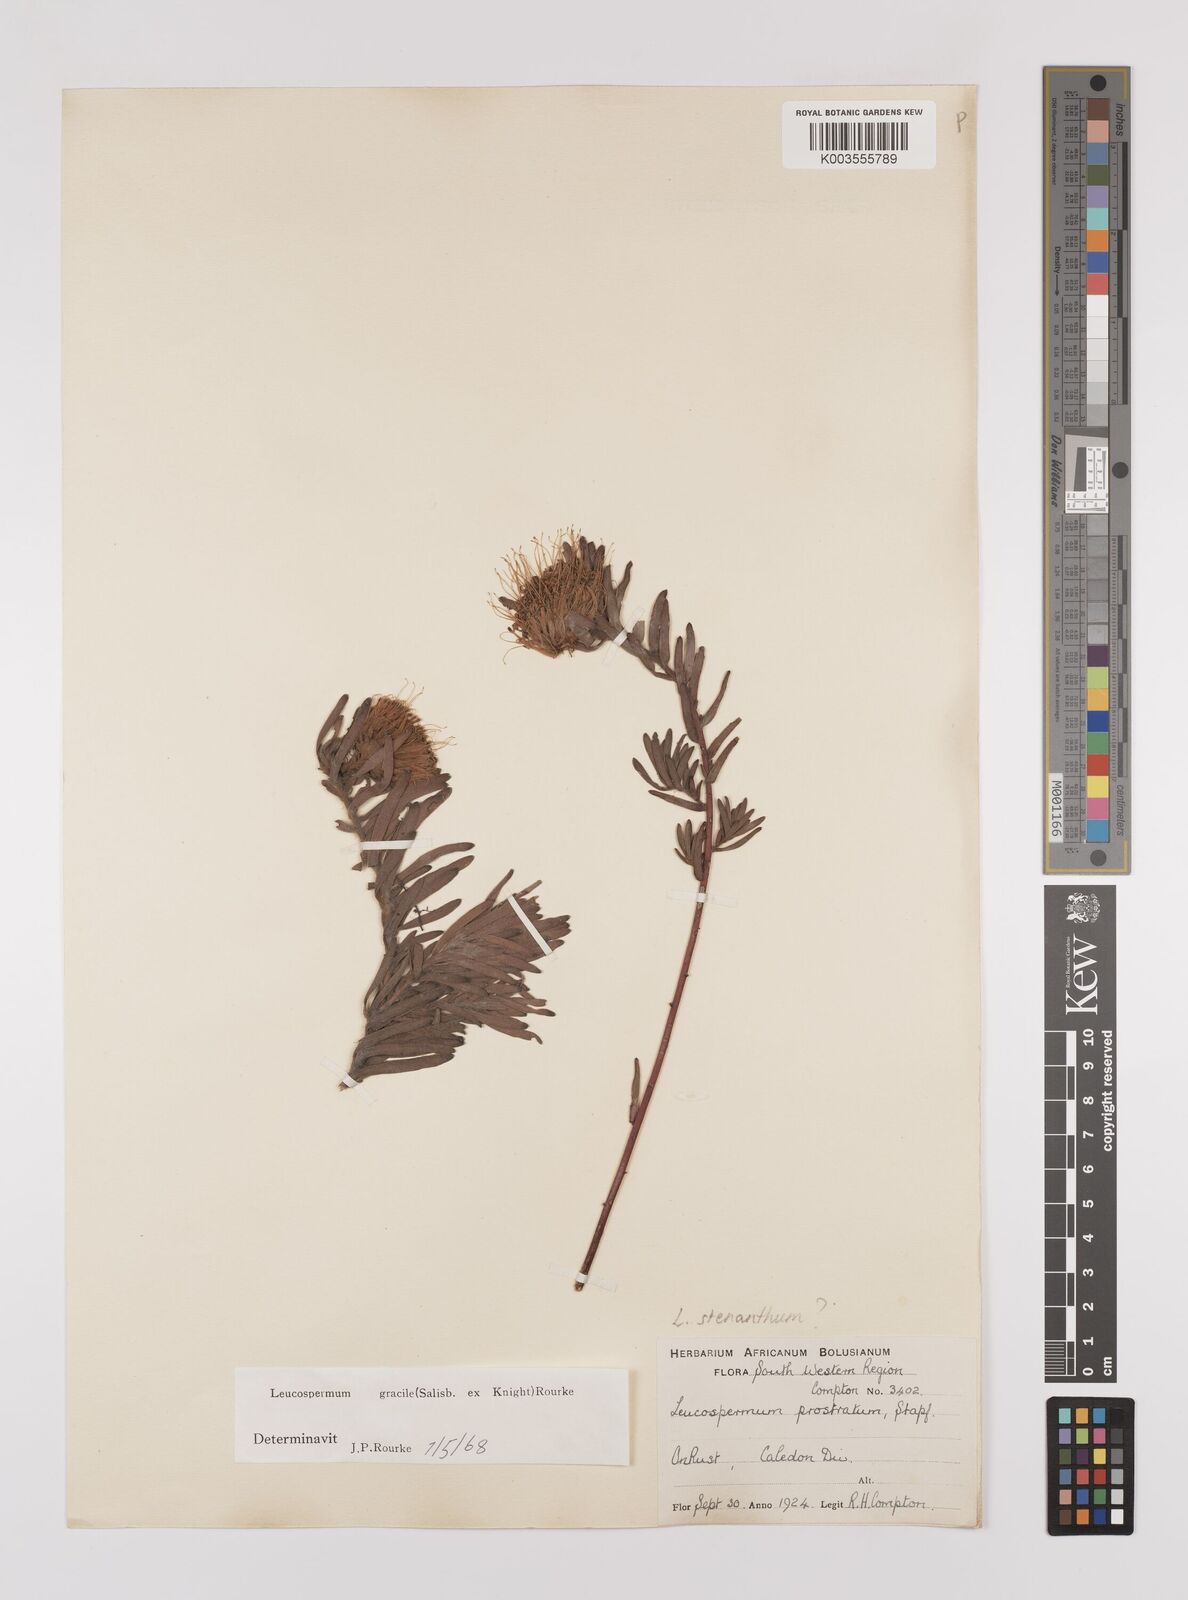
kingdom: Plantae
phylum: Tracheophyta
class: Magnoliopsida
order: Proteales
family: Proteaceae
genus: Leucospermum
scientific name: Leucospermum gracile
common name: Hermanus pincushion
